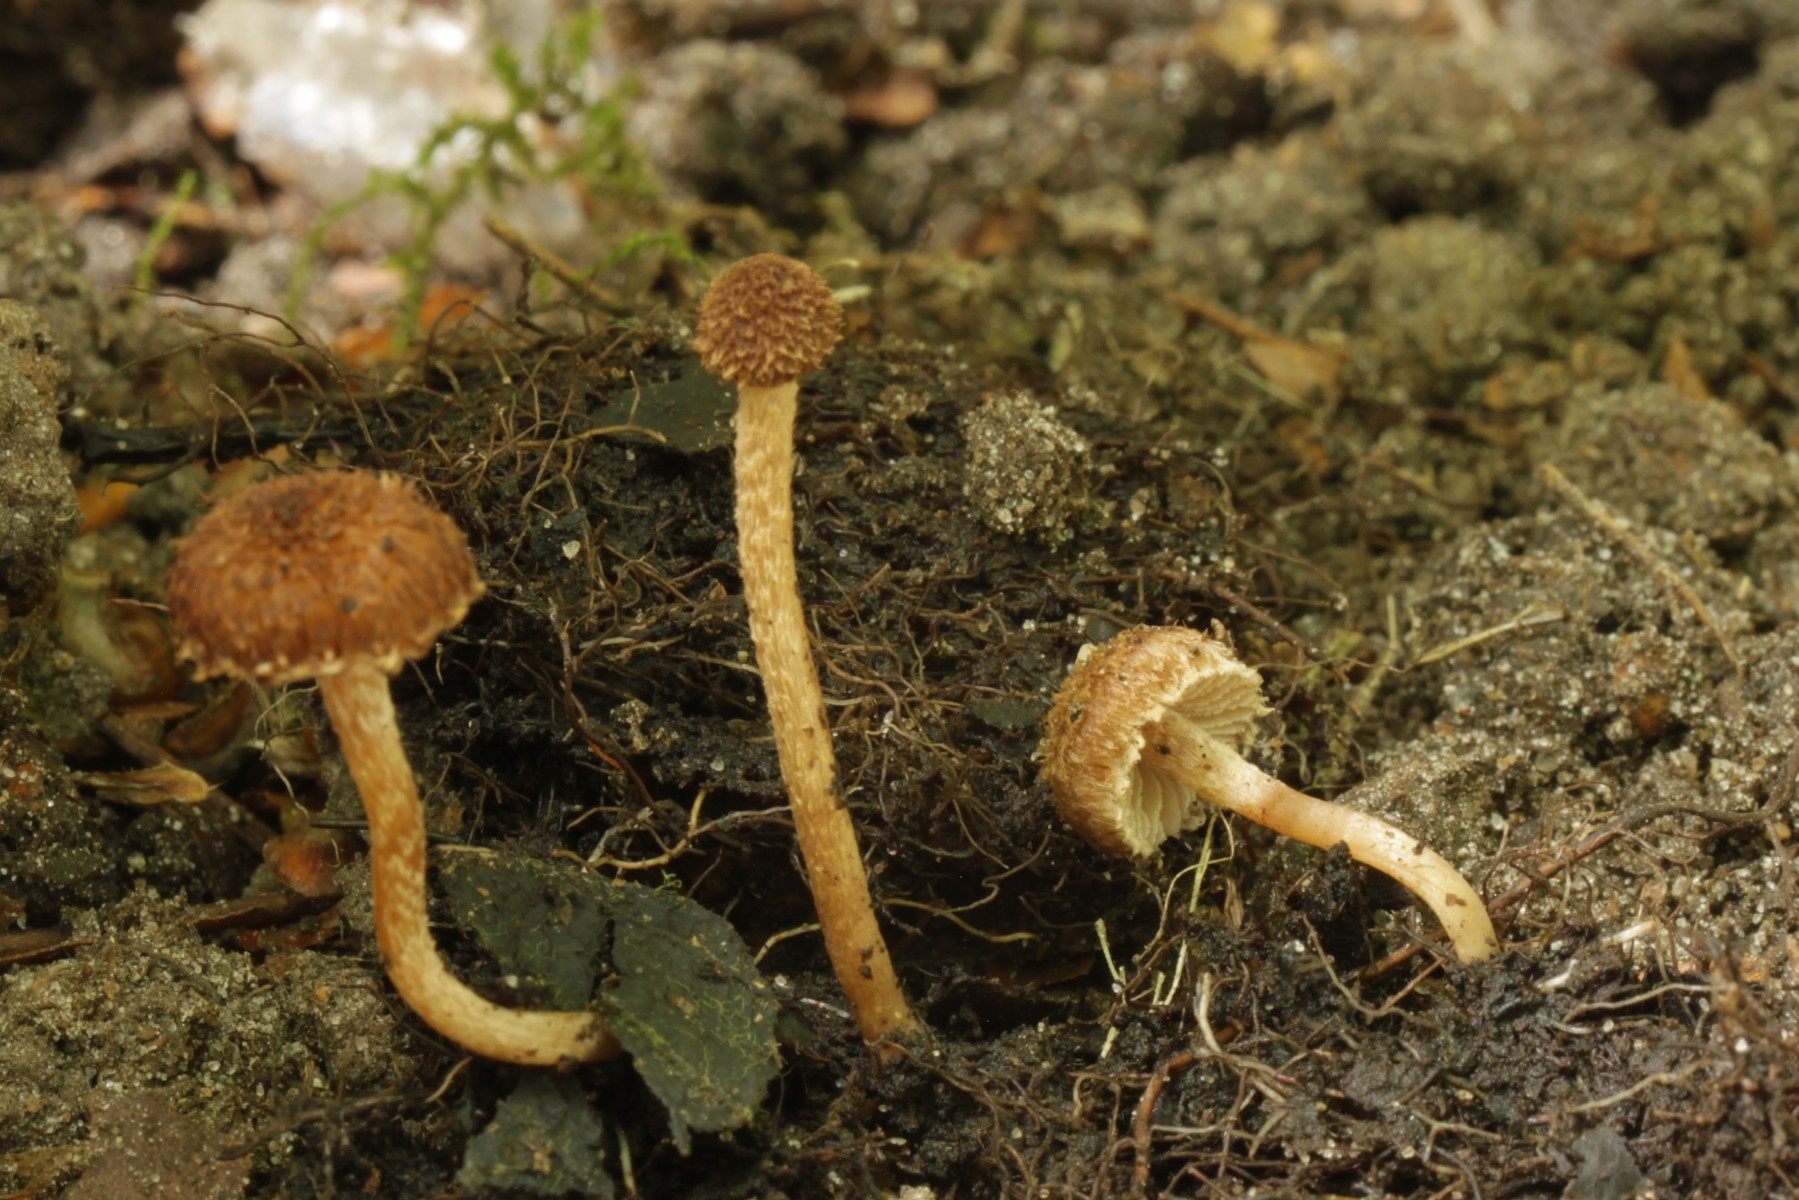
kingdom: Fungi
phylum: Basidiomycota
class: Agaricomycetes
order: Agaricales
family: Inocybaceae
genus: Inocybe
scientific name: Inocybe squarrosa
